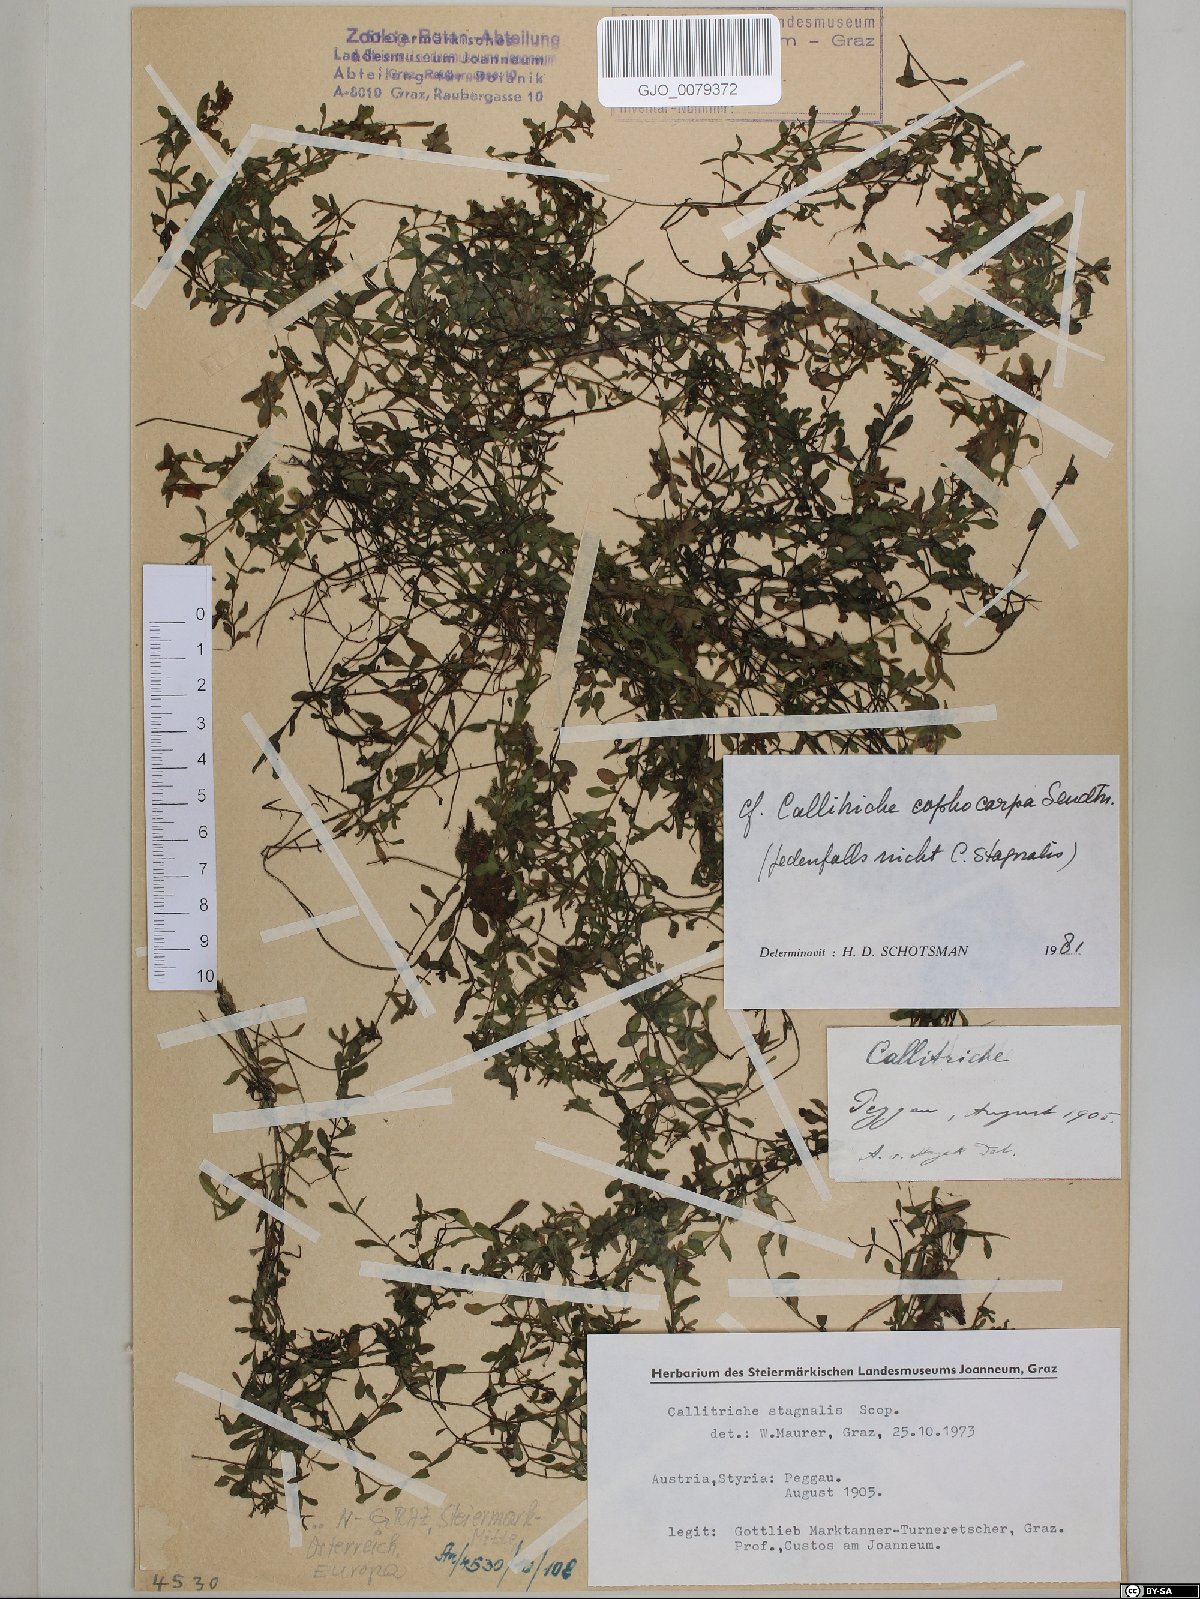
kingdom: Plantae
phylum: Tracheophyta
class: Magnoliopsida
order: Lamiales
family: Plantaginaceae
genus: Callitriche
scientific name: Callitriche cophocarpa
